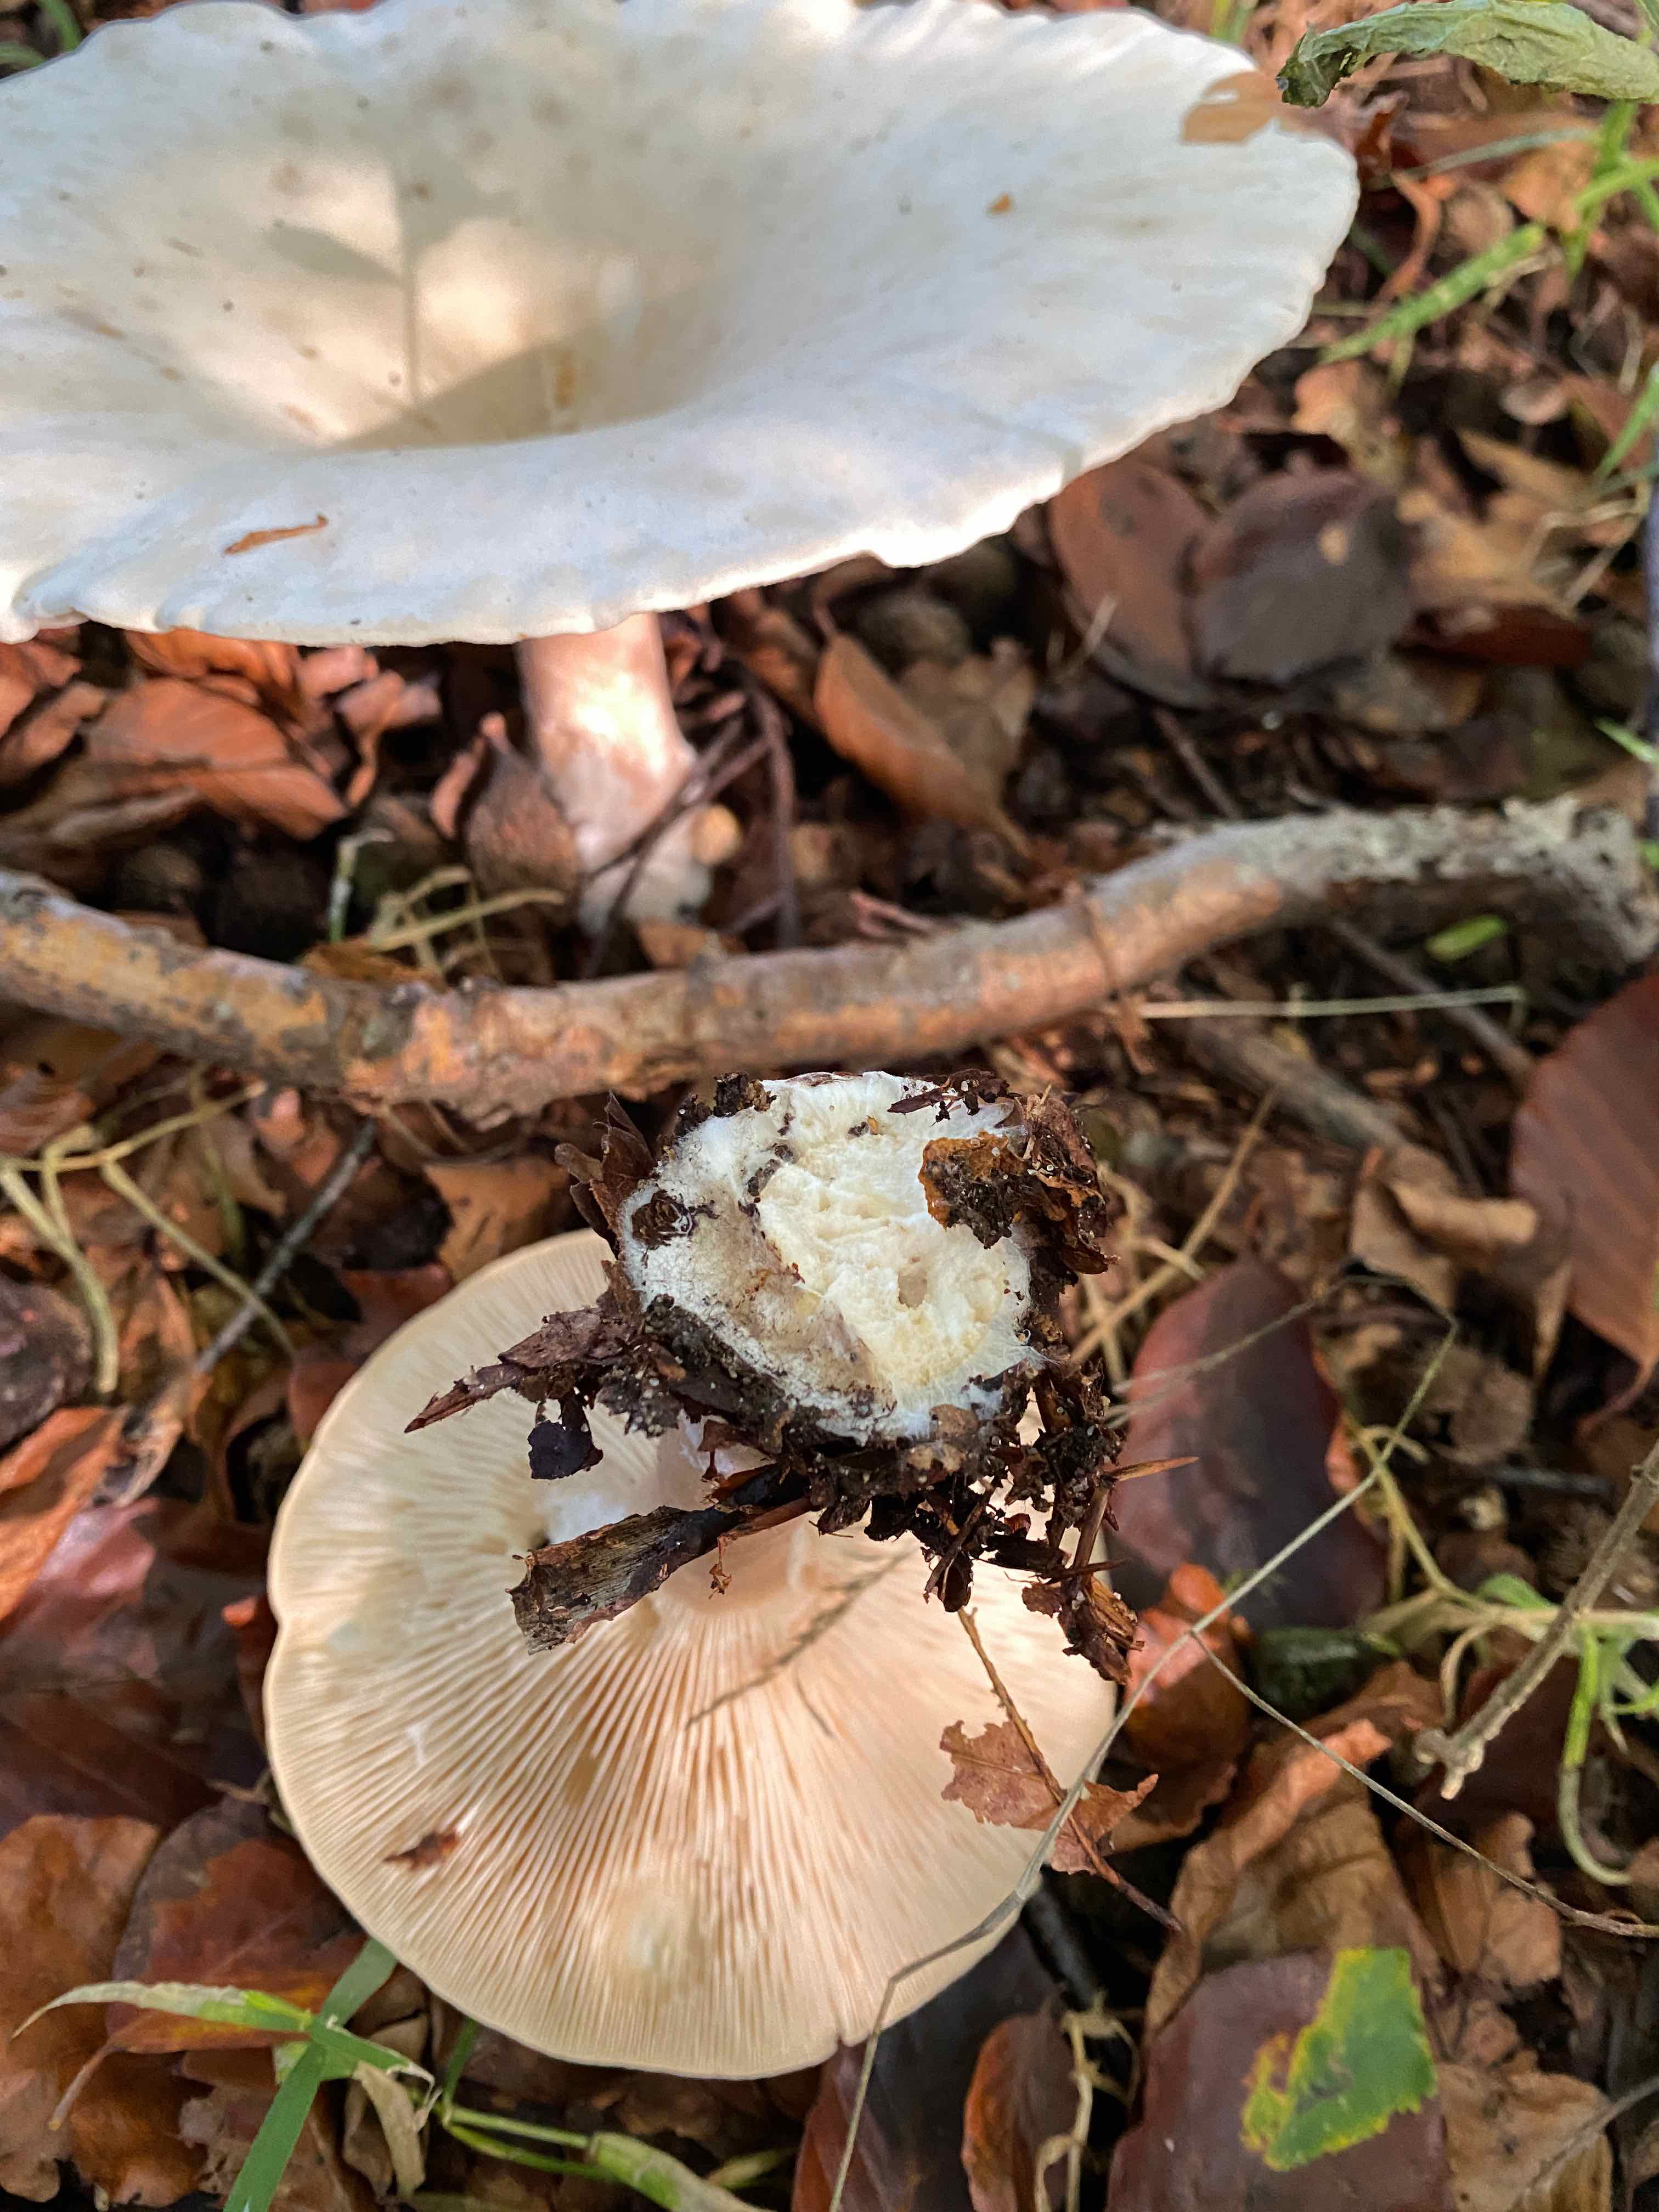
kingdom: Fungi
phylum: Basidiomycota
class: Agaricomycetes
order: Agaricales
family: Tricholomataceae
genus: Infundibulicybe
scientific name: Infundibulicybe geotropa
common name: stor tragthat
